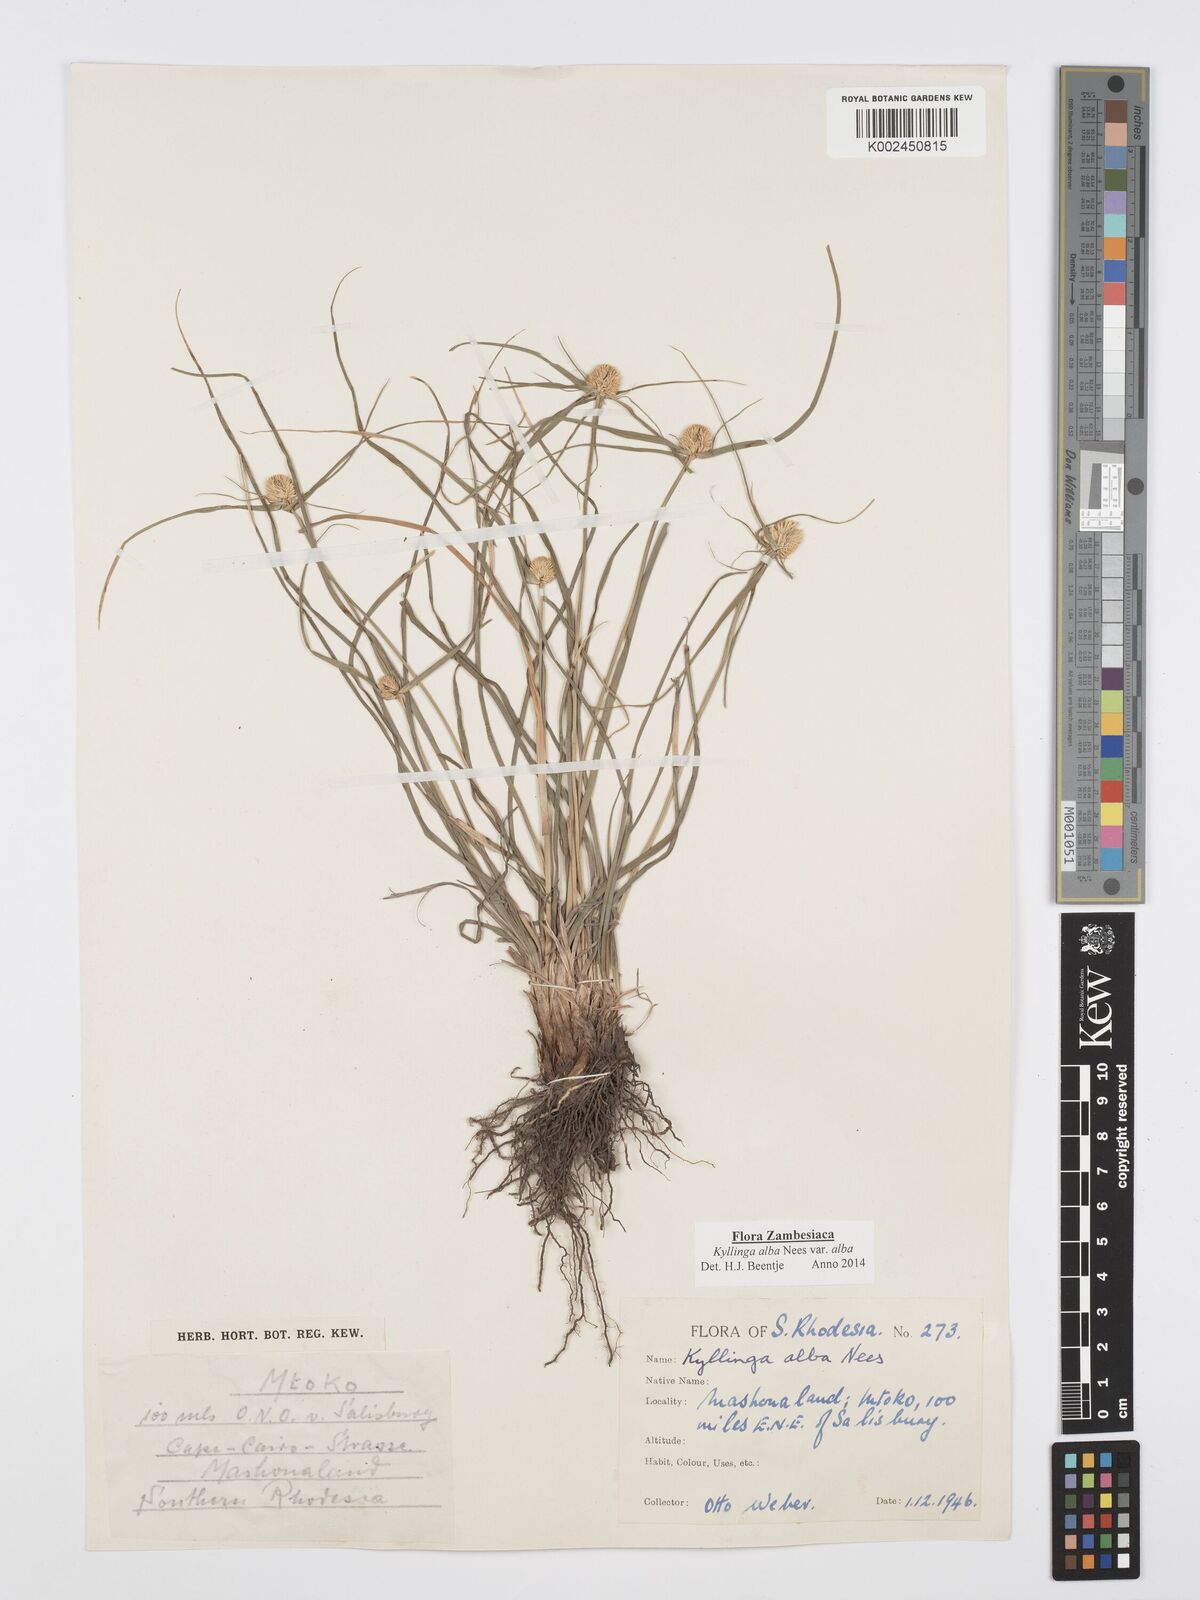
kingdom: Plantae
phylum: Tracheophyta
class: Liliopsida
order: Poales
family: Cyperaceae
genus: Cyperus
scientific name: Cyperus
